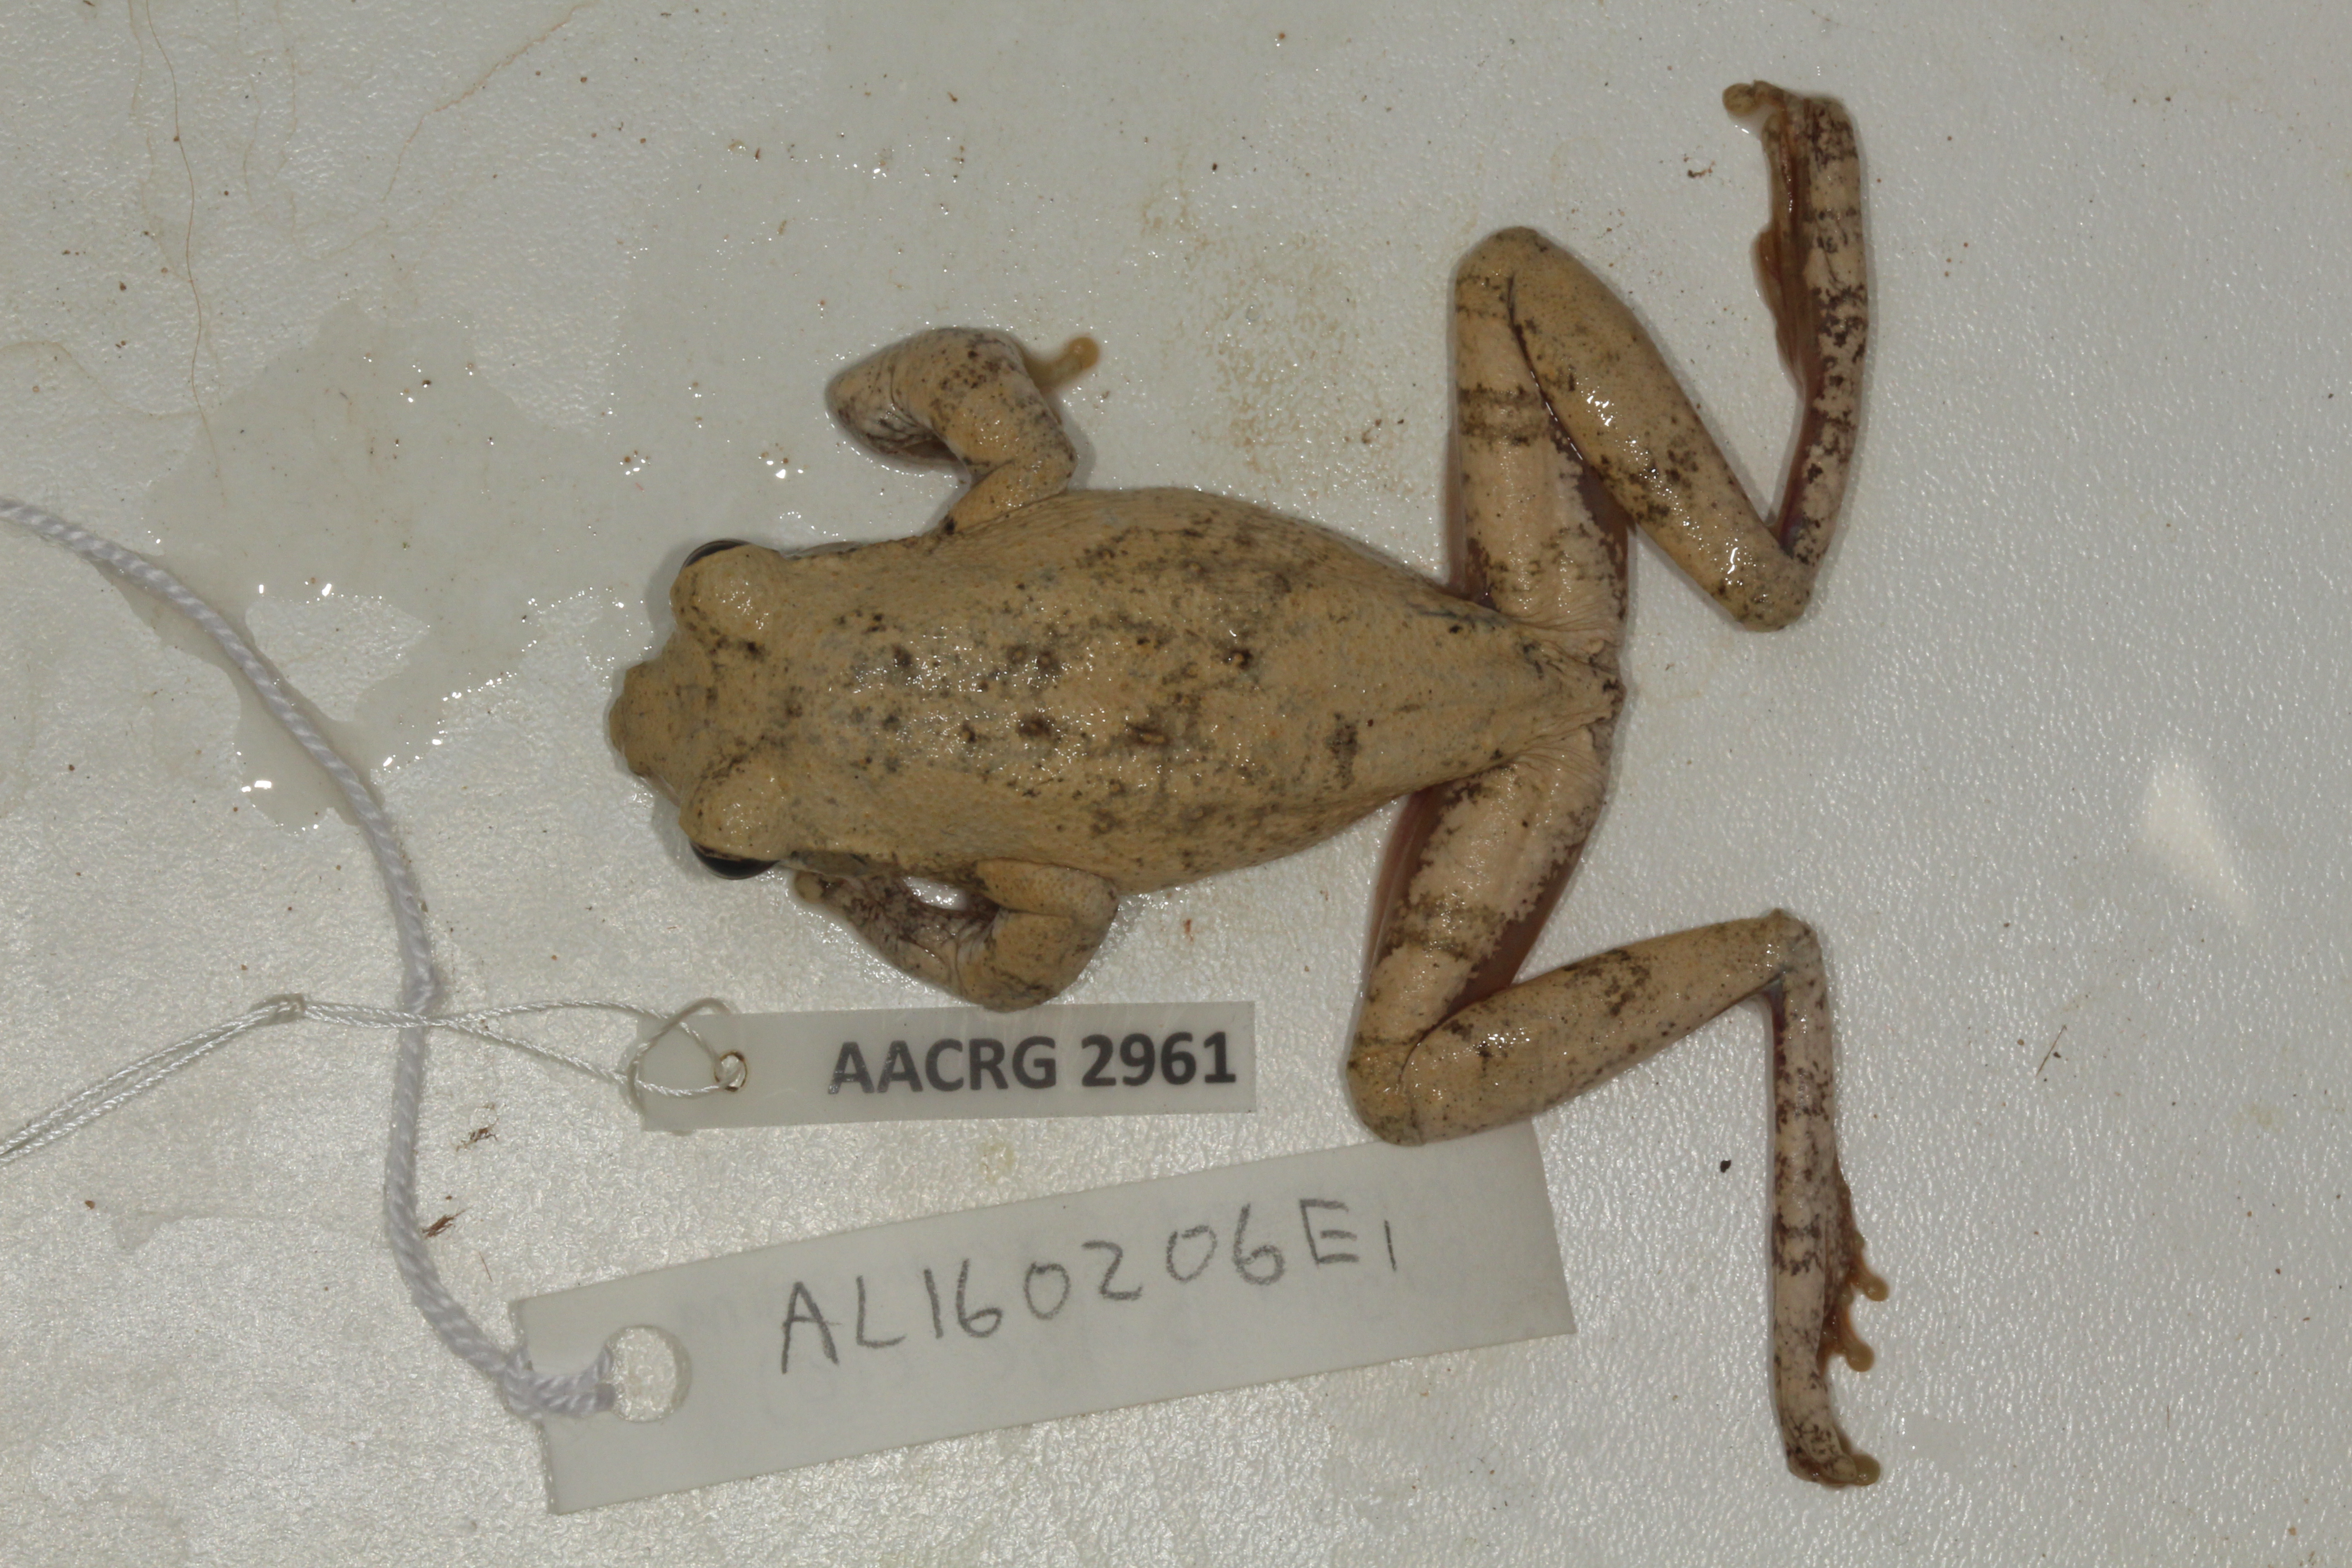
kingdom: Animalia
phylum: Chordata
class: Amphibia
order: Anura
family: Rhacophoridae
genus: Chiromantis
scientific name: Chiromantis xerampelina
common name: African gray treefrog
